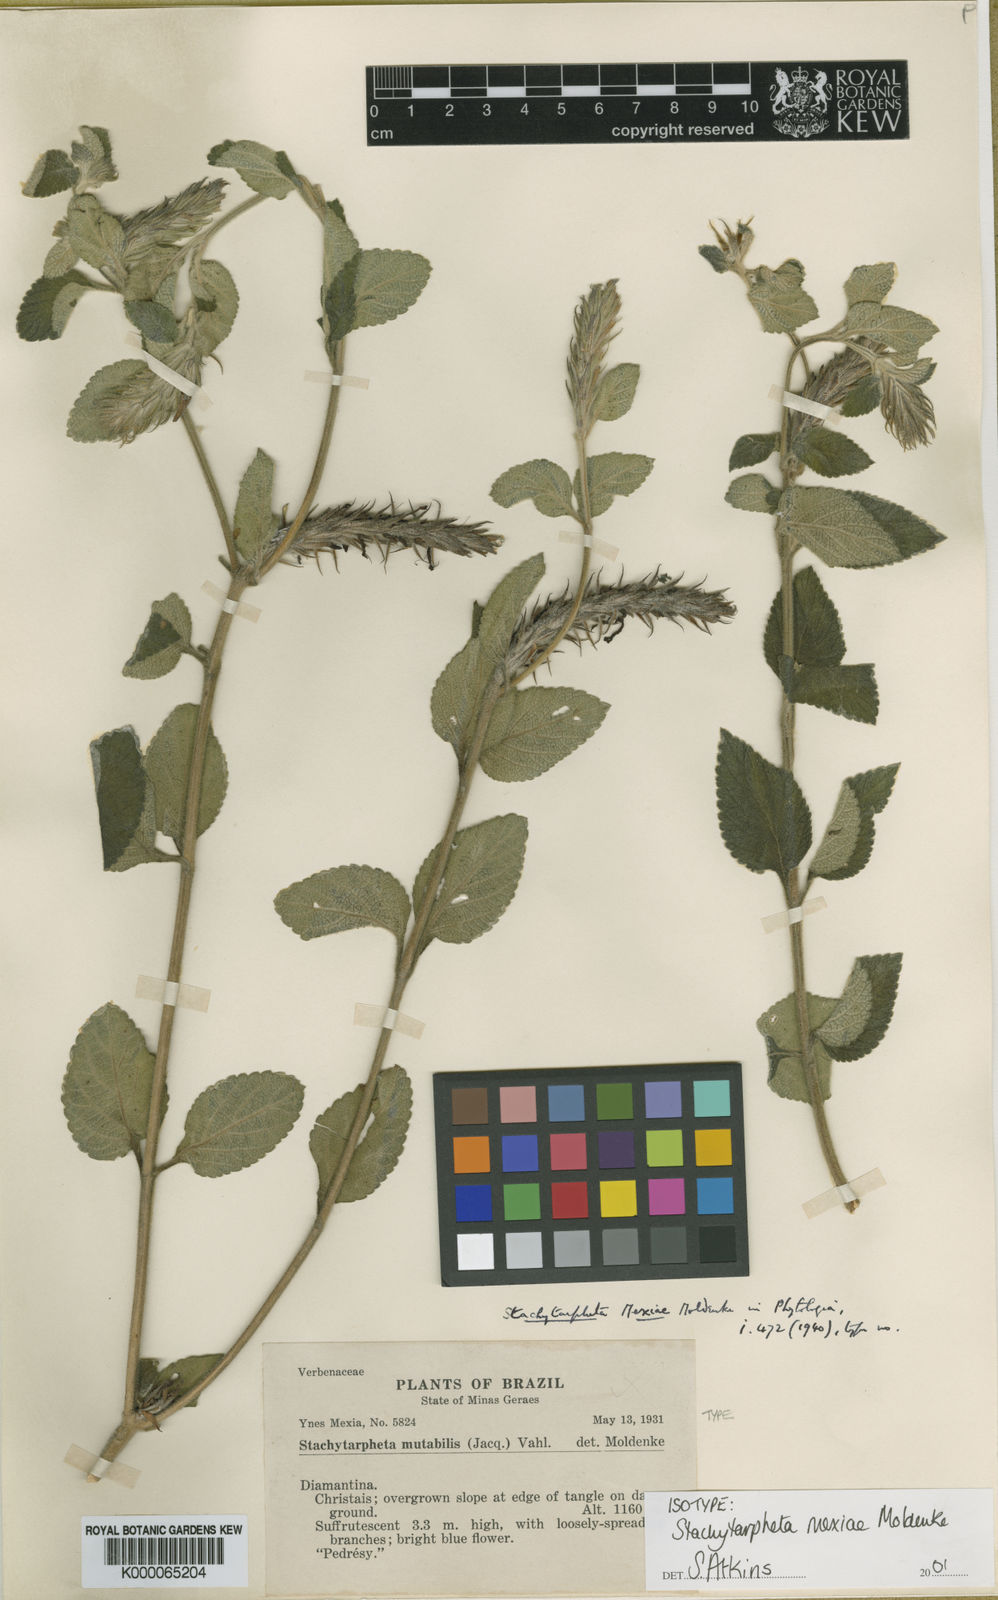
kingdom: Plantae
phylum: Tracheophyta
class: Magnoliopsida
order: Lamiales
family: Verbenaceae
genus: Stachytarpheta
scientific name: Stachytarpheta mutabilis
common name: Changeable velvetberry
